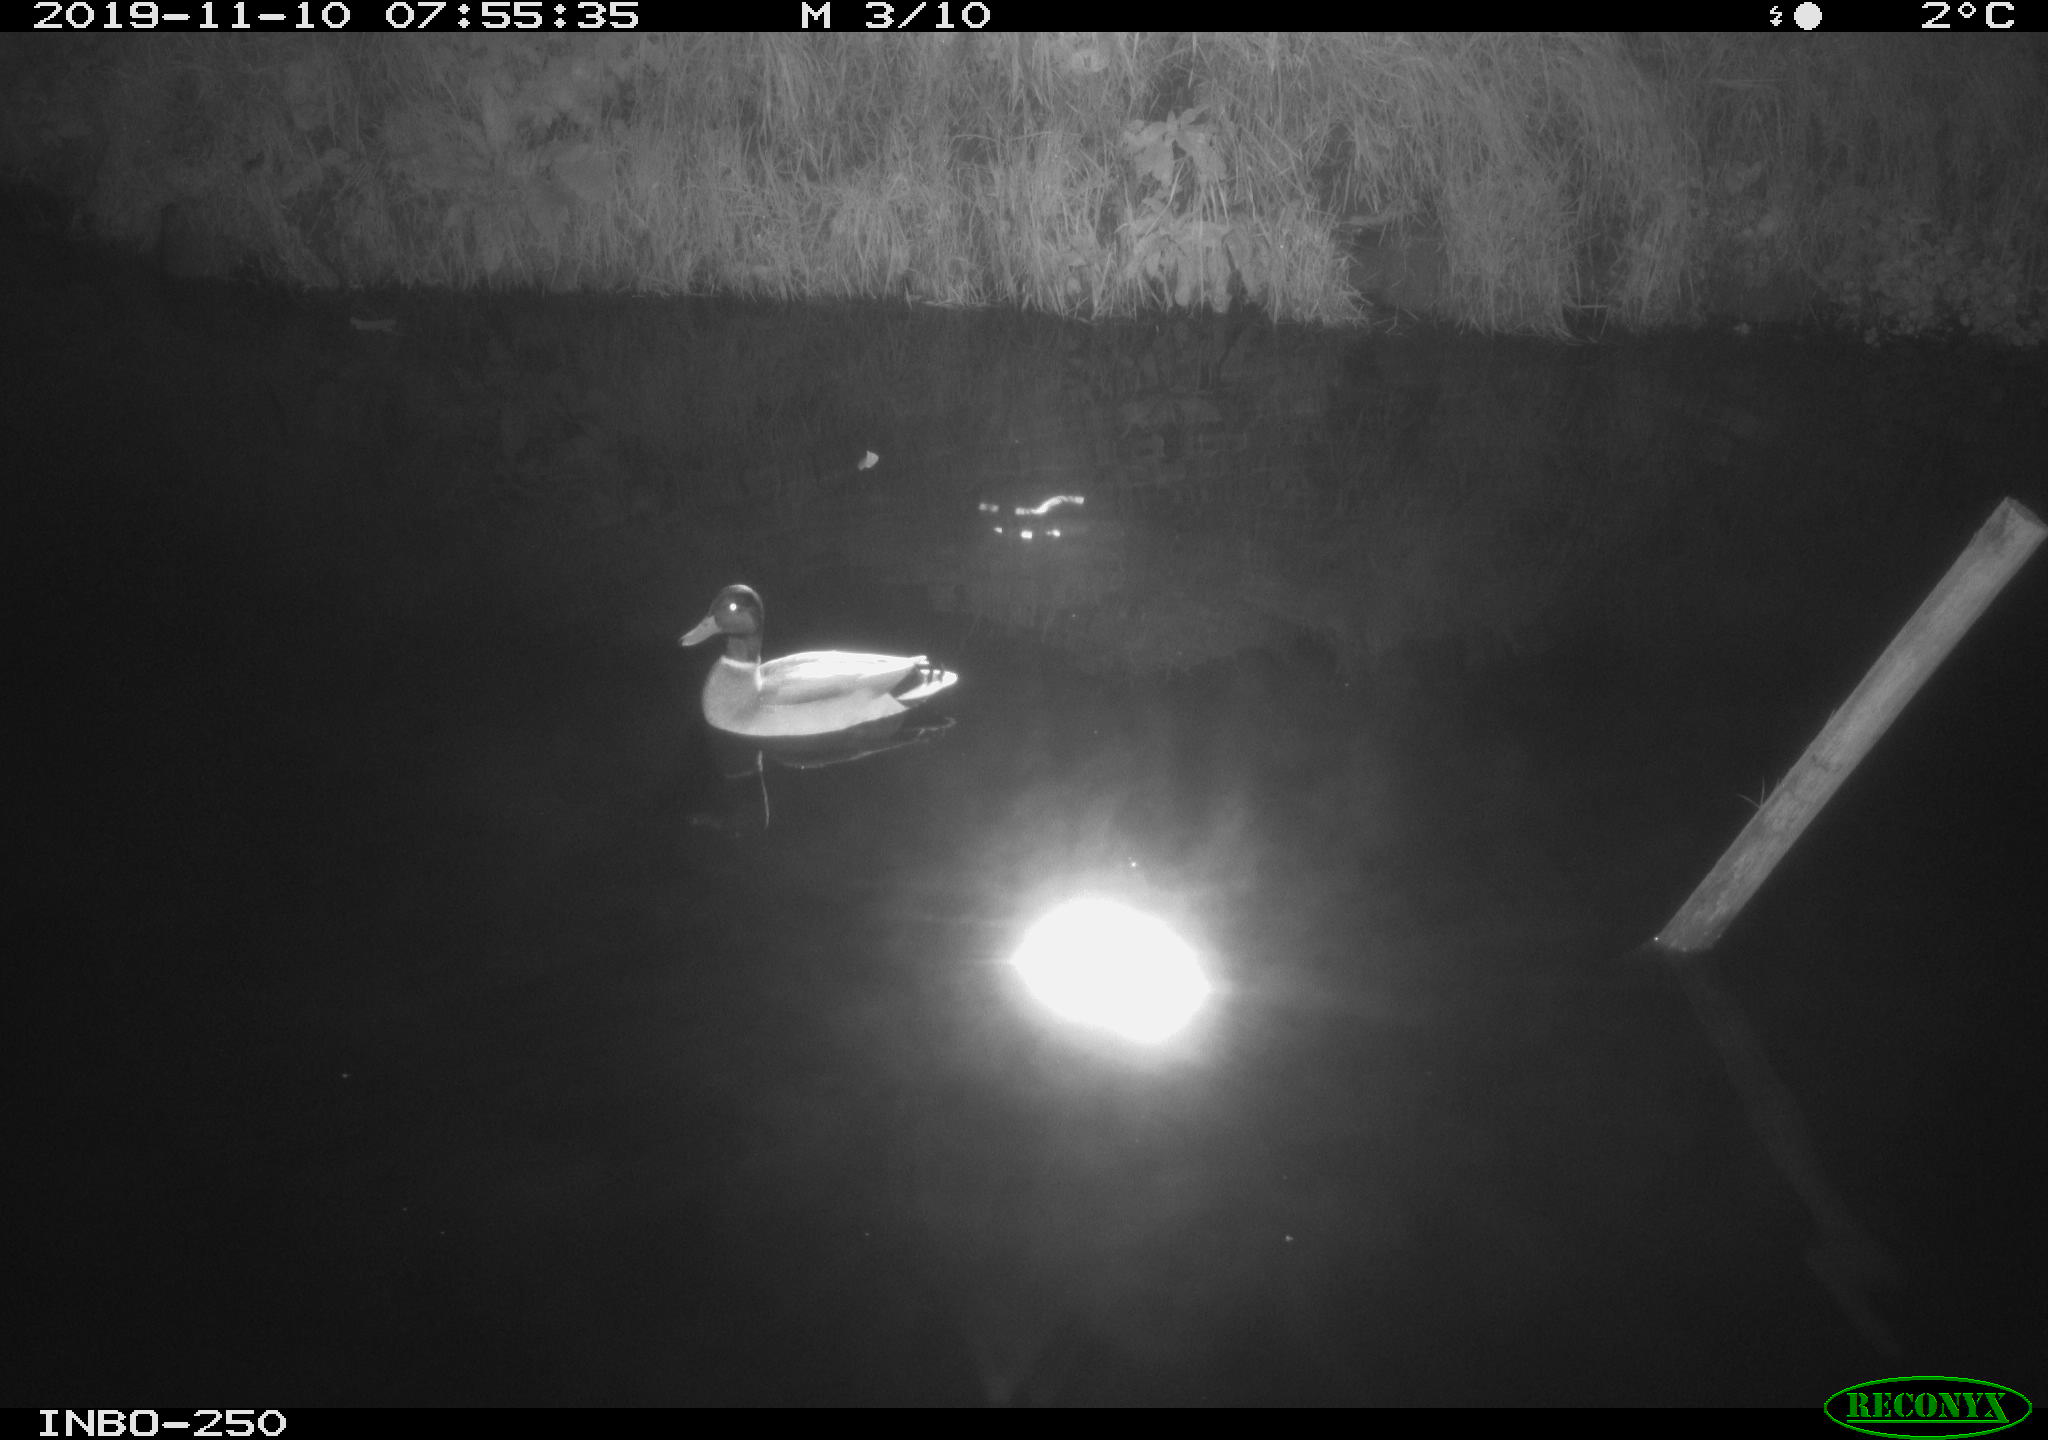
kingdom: Animalia
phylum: Chordata
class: Aves
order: Anseriformes
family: Anatidae
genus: Anas
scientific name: Anas platyrhynchos
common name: Mallard
